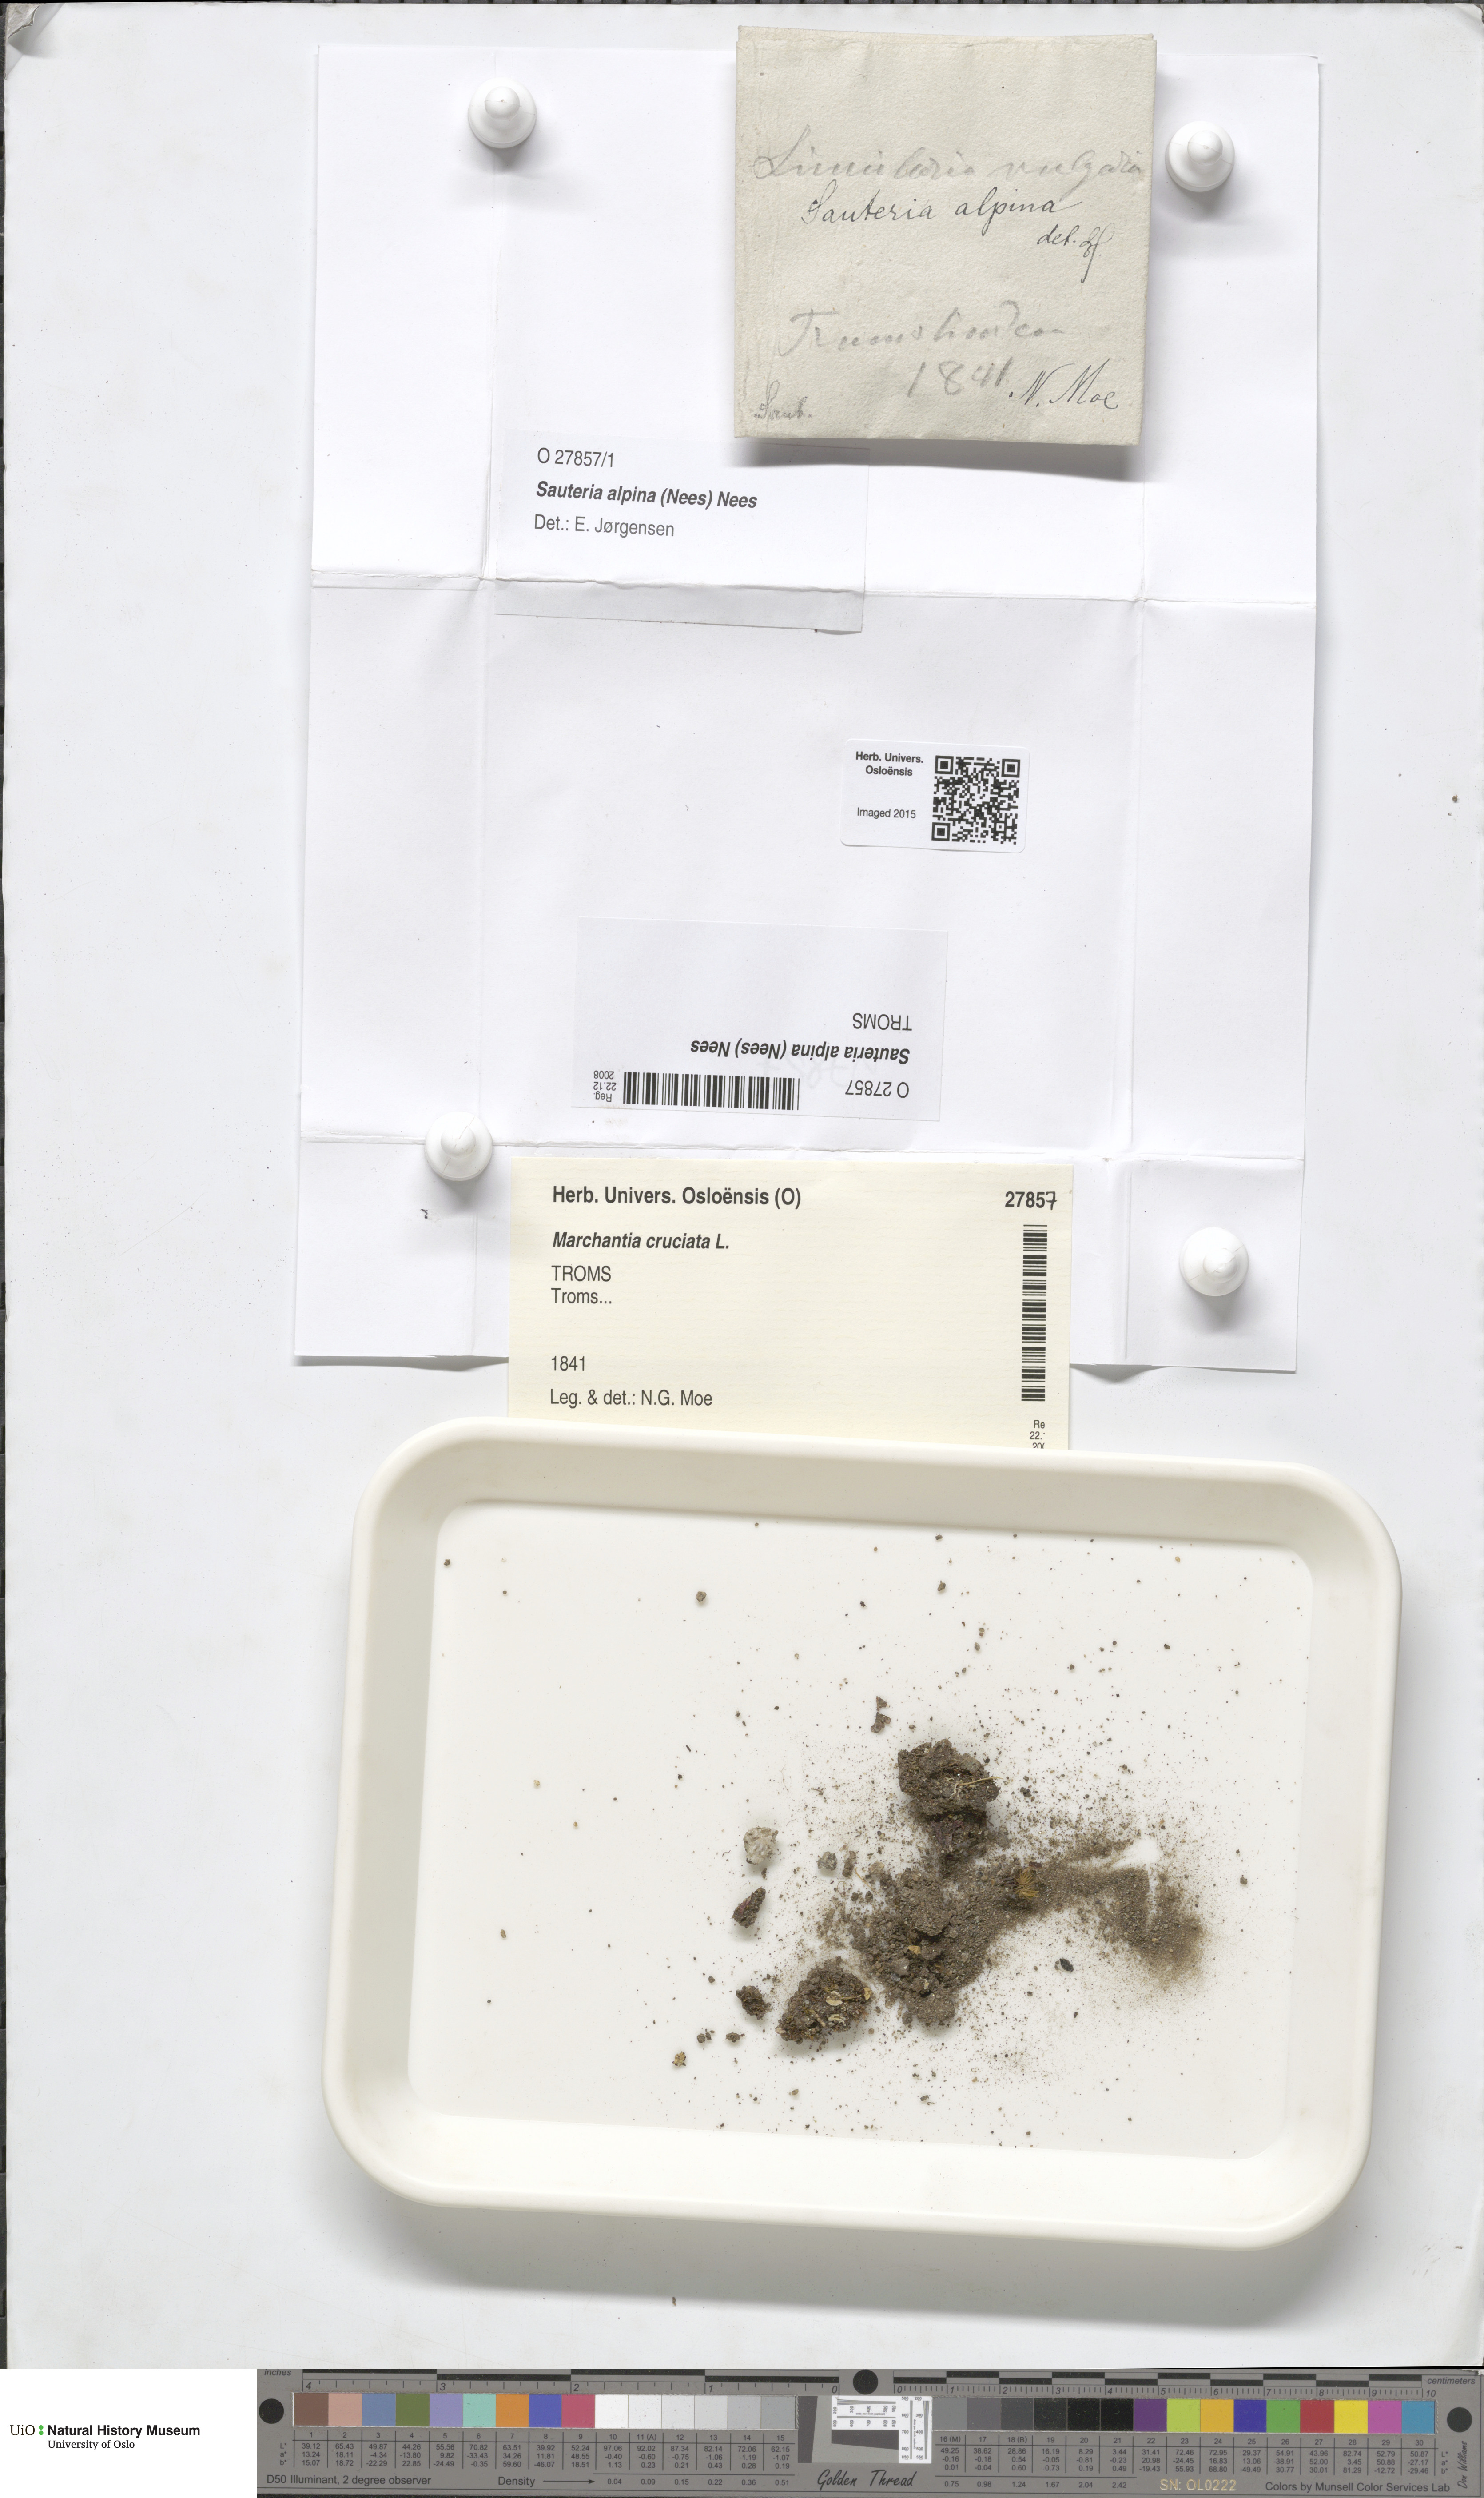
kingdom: Plantae
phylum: Marchantiophyta
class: Marchantiopsida
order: Marchantiales
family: Cleveaceae
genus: Sauteria
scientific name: Sauteria alpina
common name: Snow lungwort
